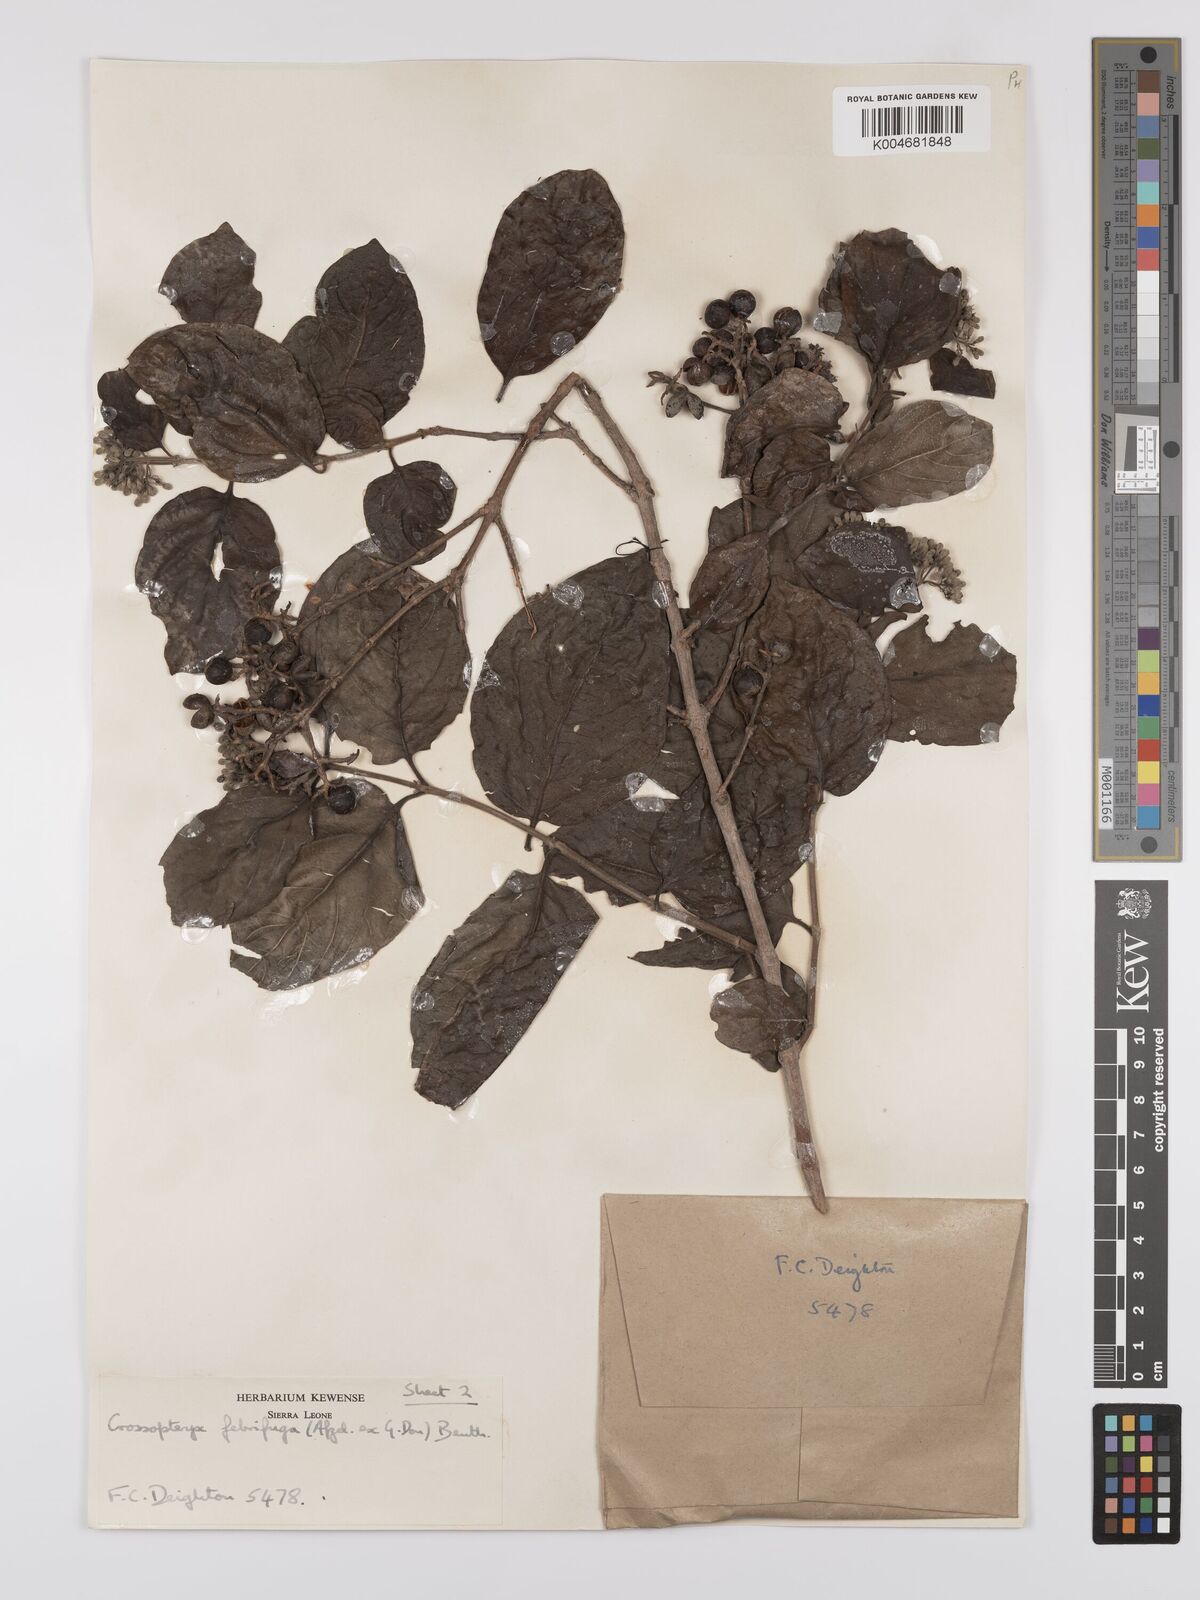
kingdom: Plantae
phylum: Tracheophyta
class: Magnoliopsida
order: Gentianales
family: Rubiaceae
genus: Crossopteryx
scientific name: Crossopteryx febrifuga
